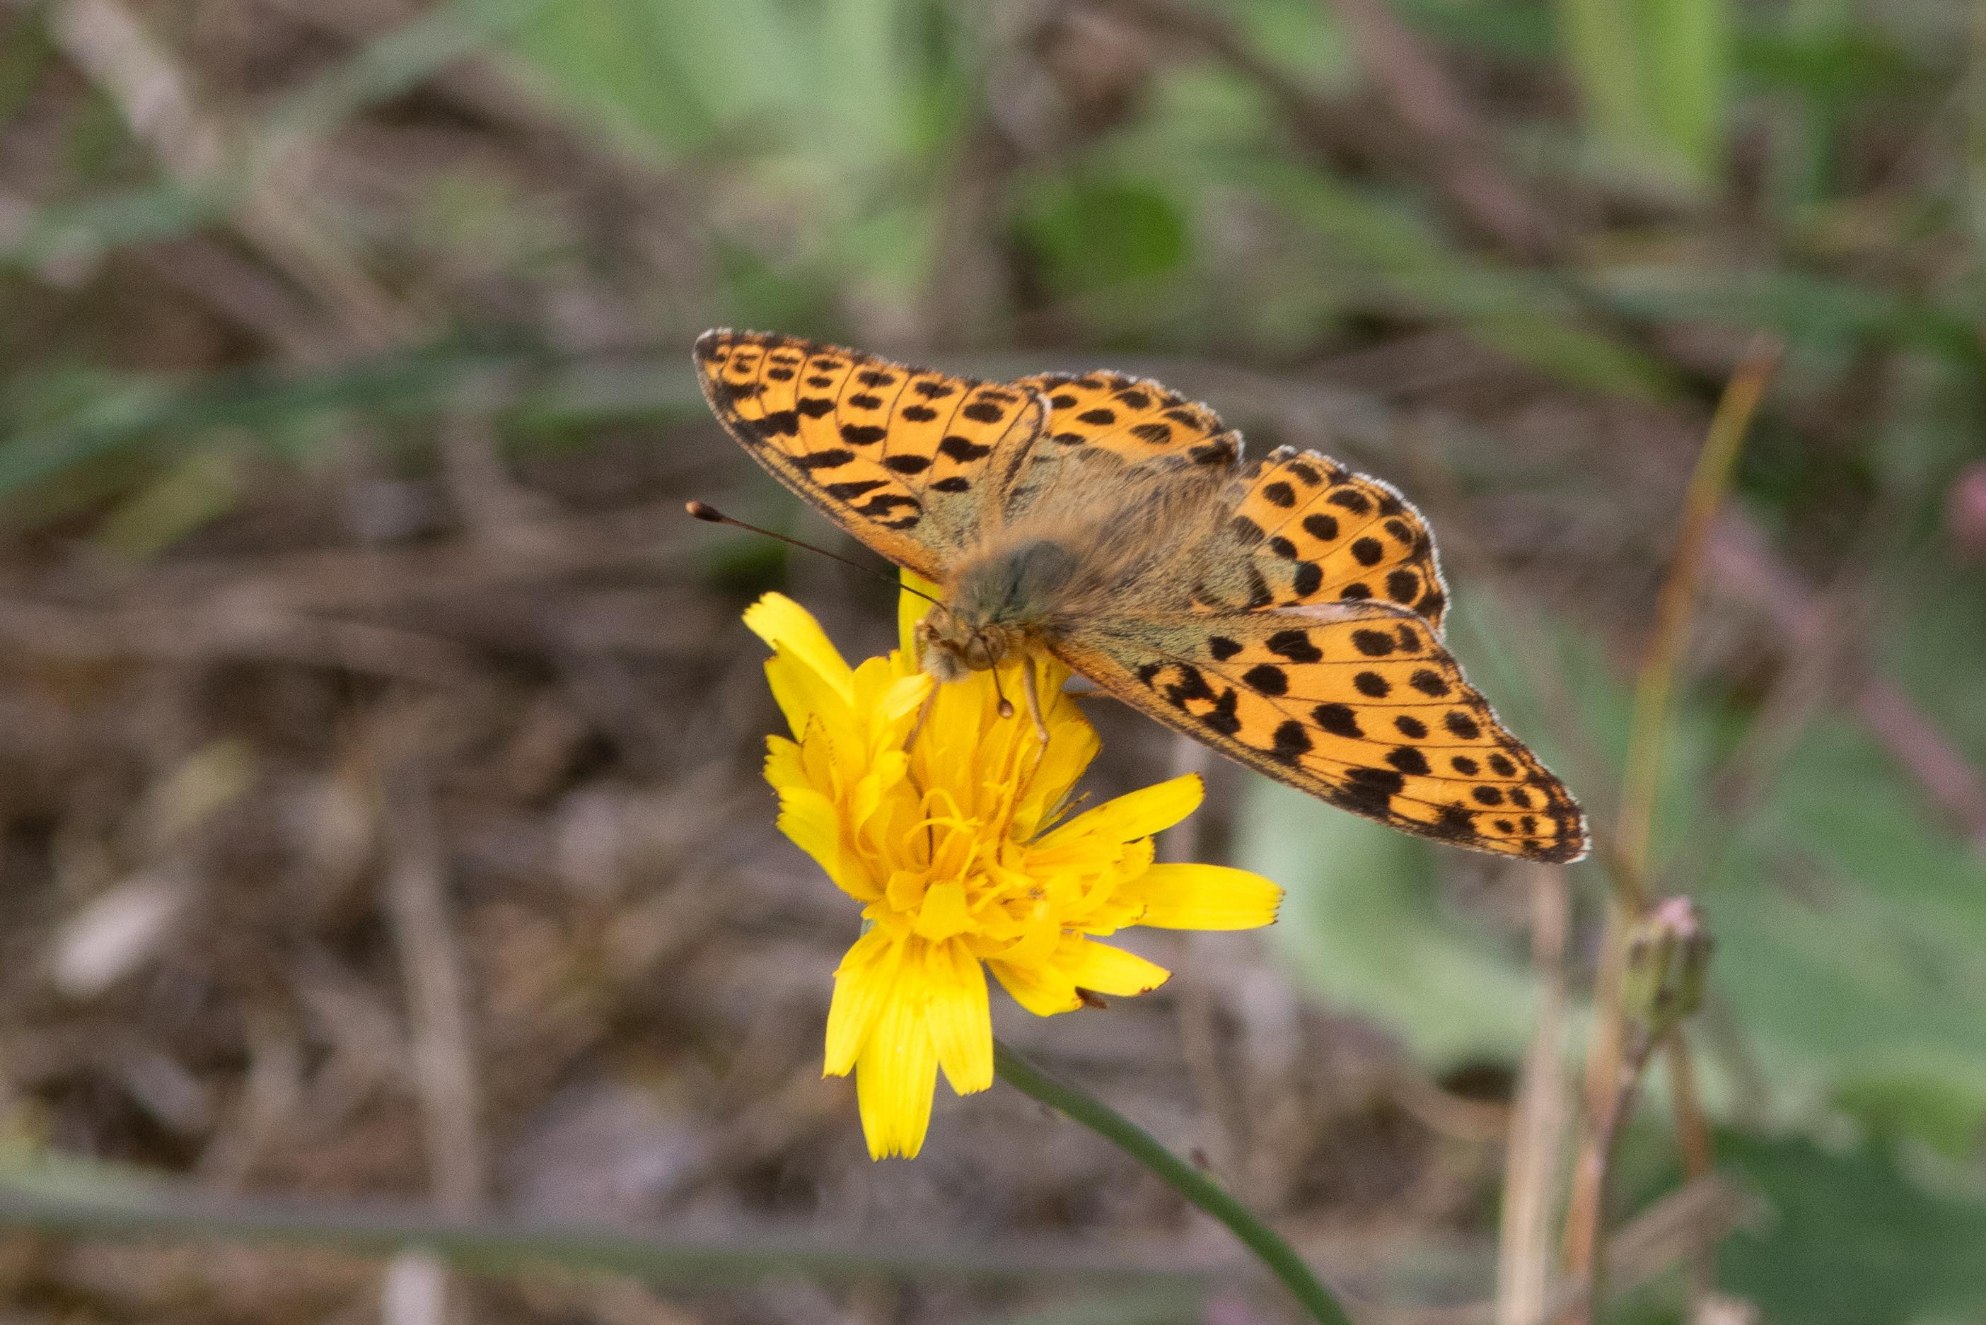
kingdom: Animalia
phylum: Arthropoda
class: Insecta
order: Lepidoptera
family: Nymphalidae
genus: Issoria
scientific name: Issoria lathonia
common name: Storplettet perlemorsommerfugl
